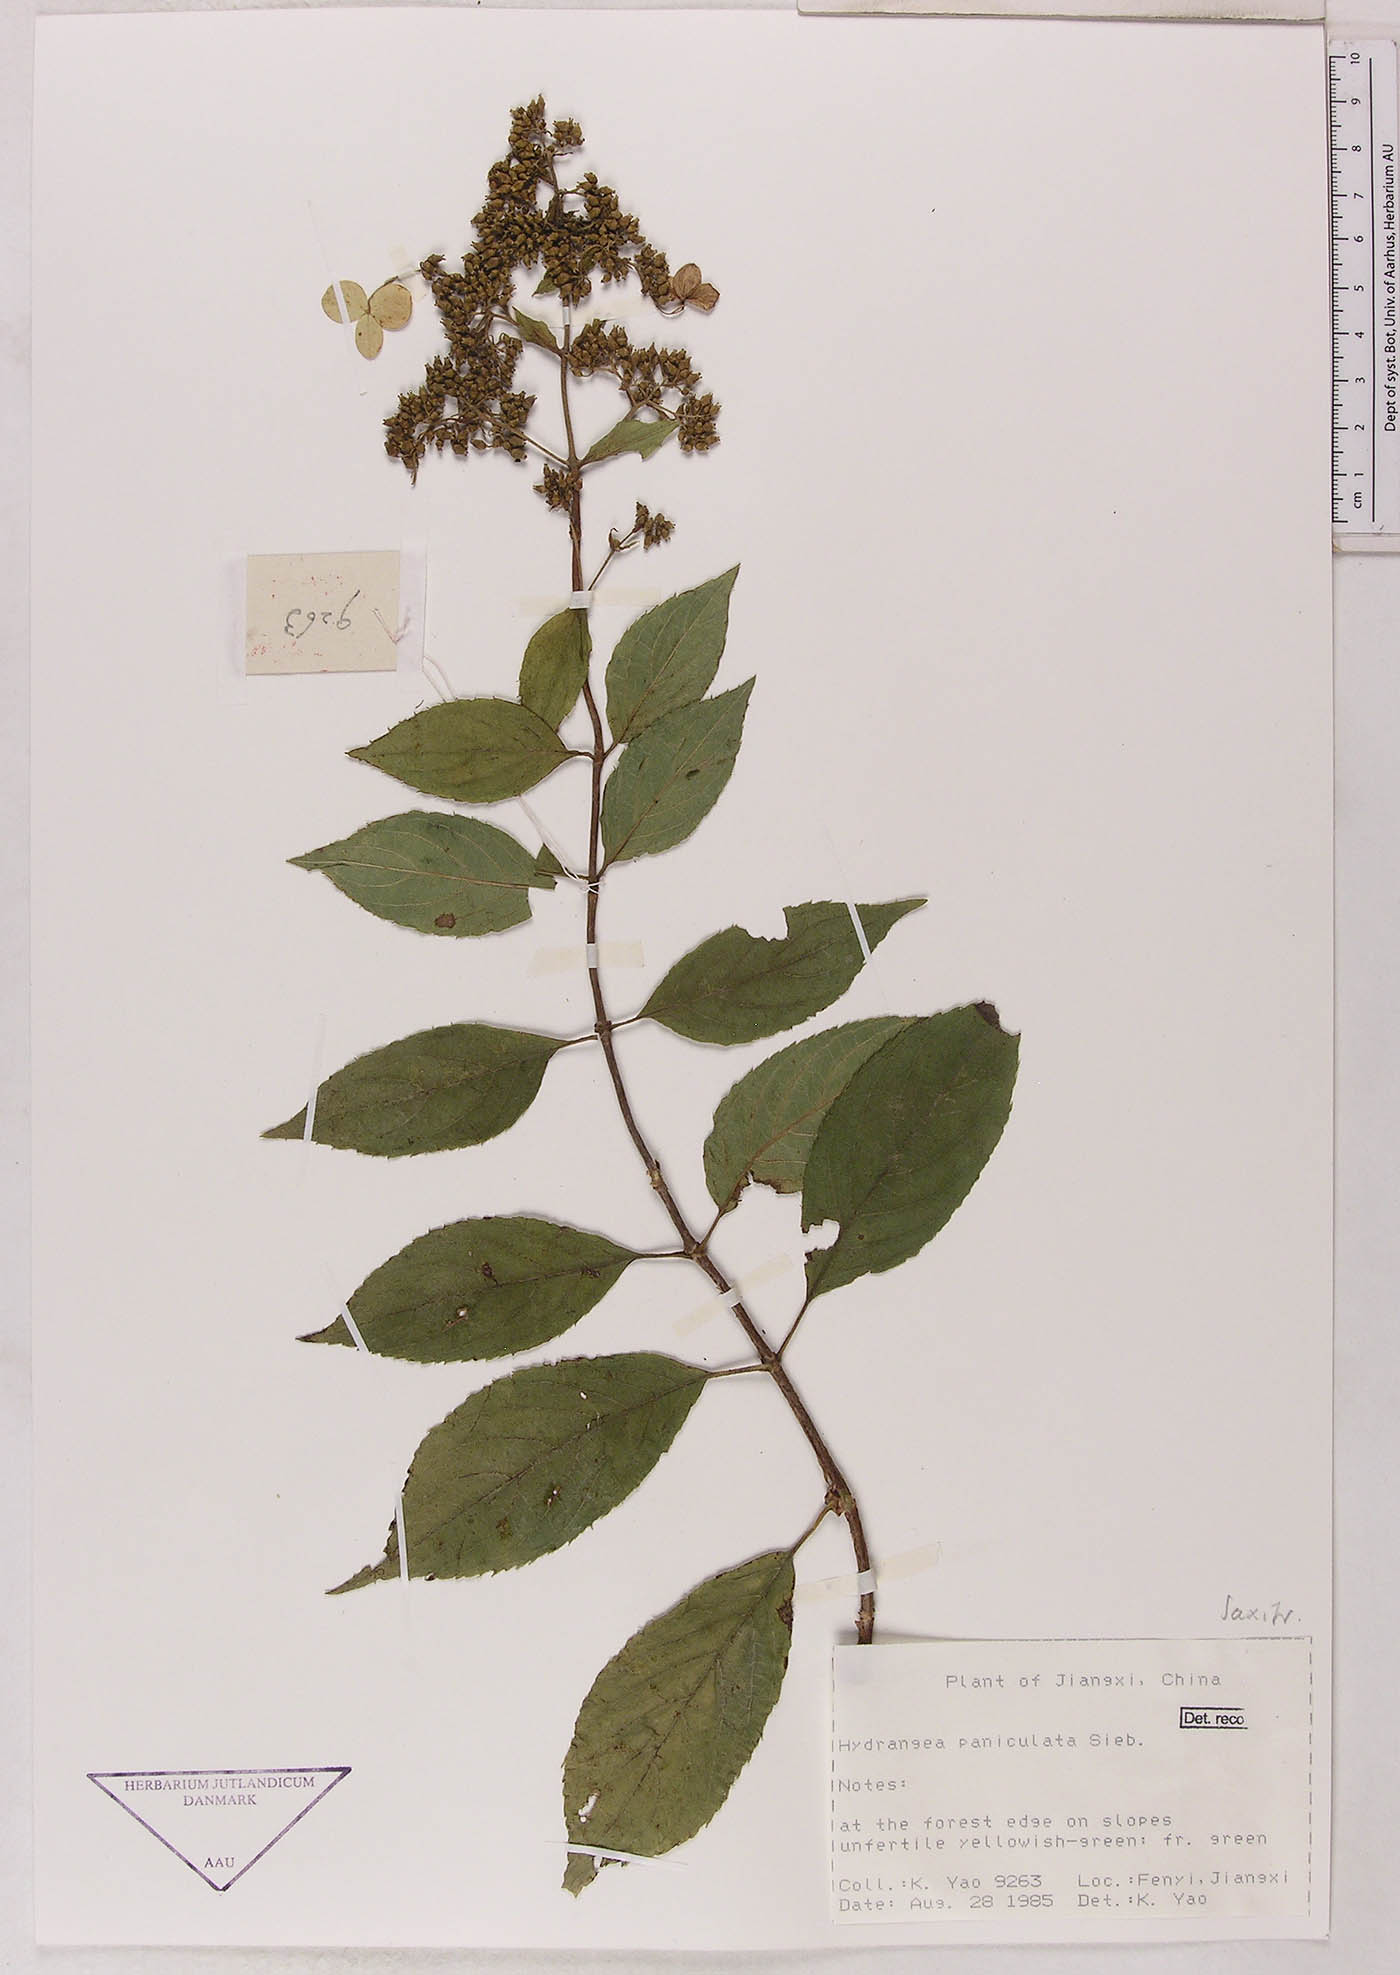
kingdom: Plantae
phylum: Tracheophyta
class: Magnoliopsida
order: Cornales
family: Hydrangeaceae
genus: Hydrangea
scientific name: Hydrangea paniculata
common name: Panicled hydrangea
